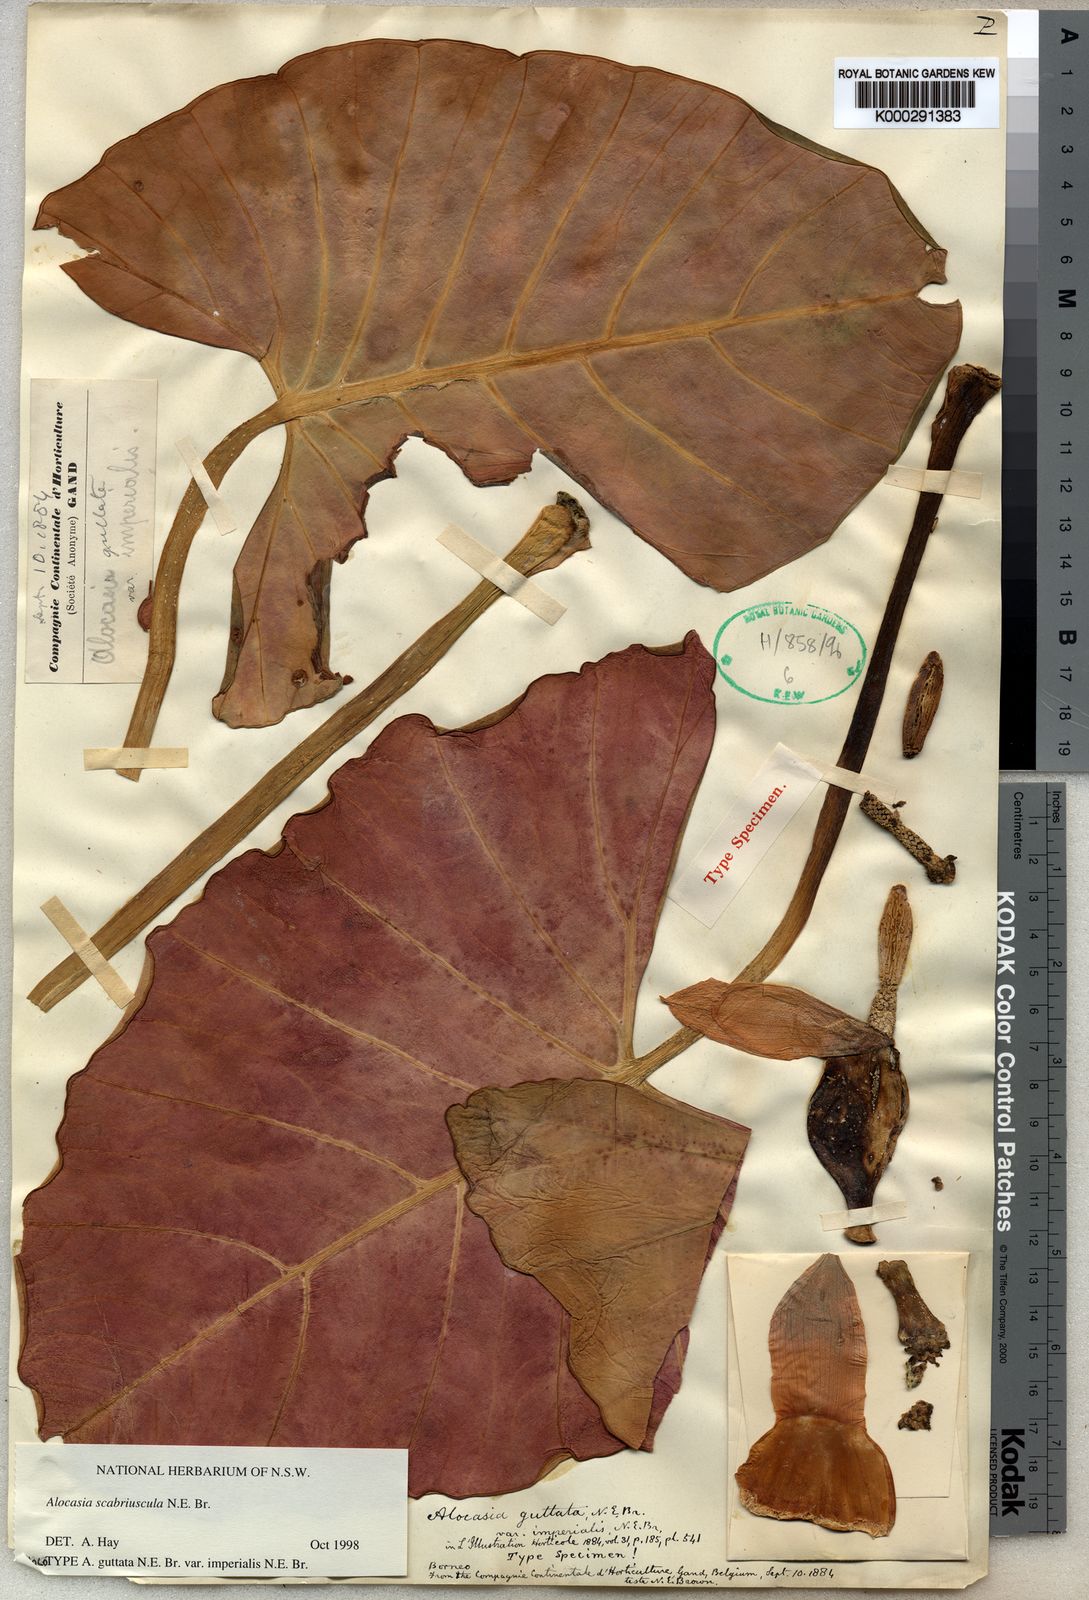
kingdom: Plantae
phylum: Tracheophyta
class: Liliopsida
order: Alismatales
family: Araceae
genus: Alocasia
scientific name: Alocasia scabriuscula
